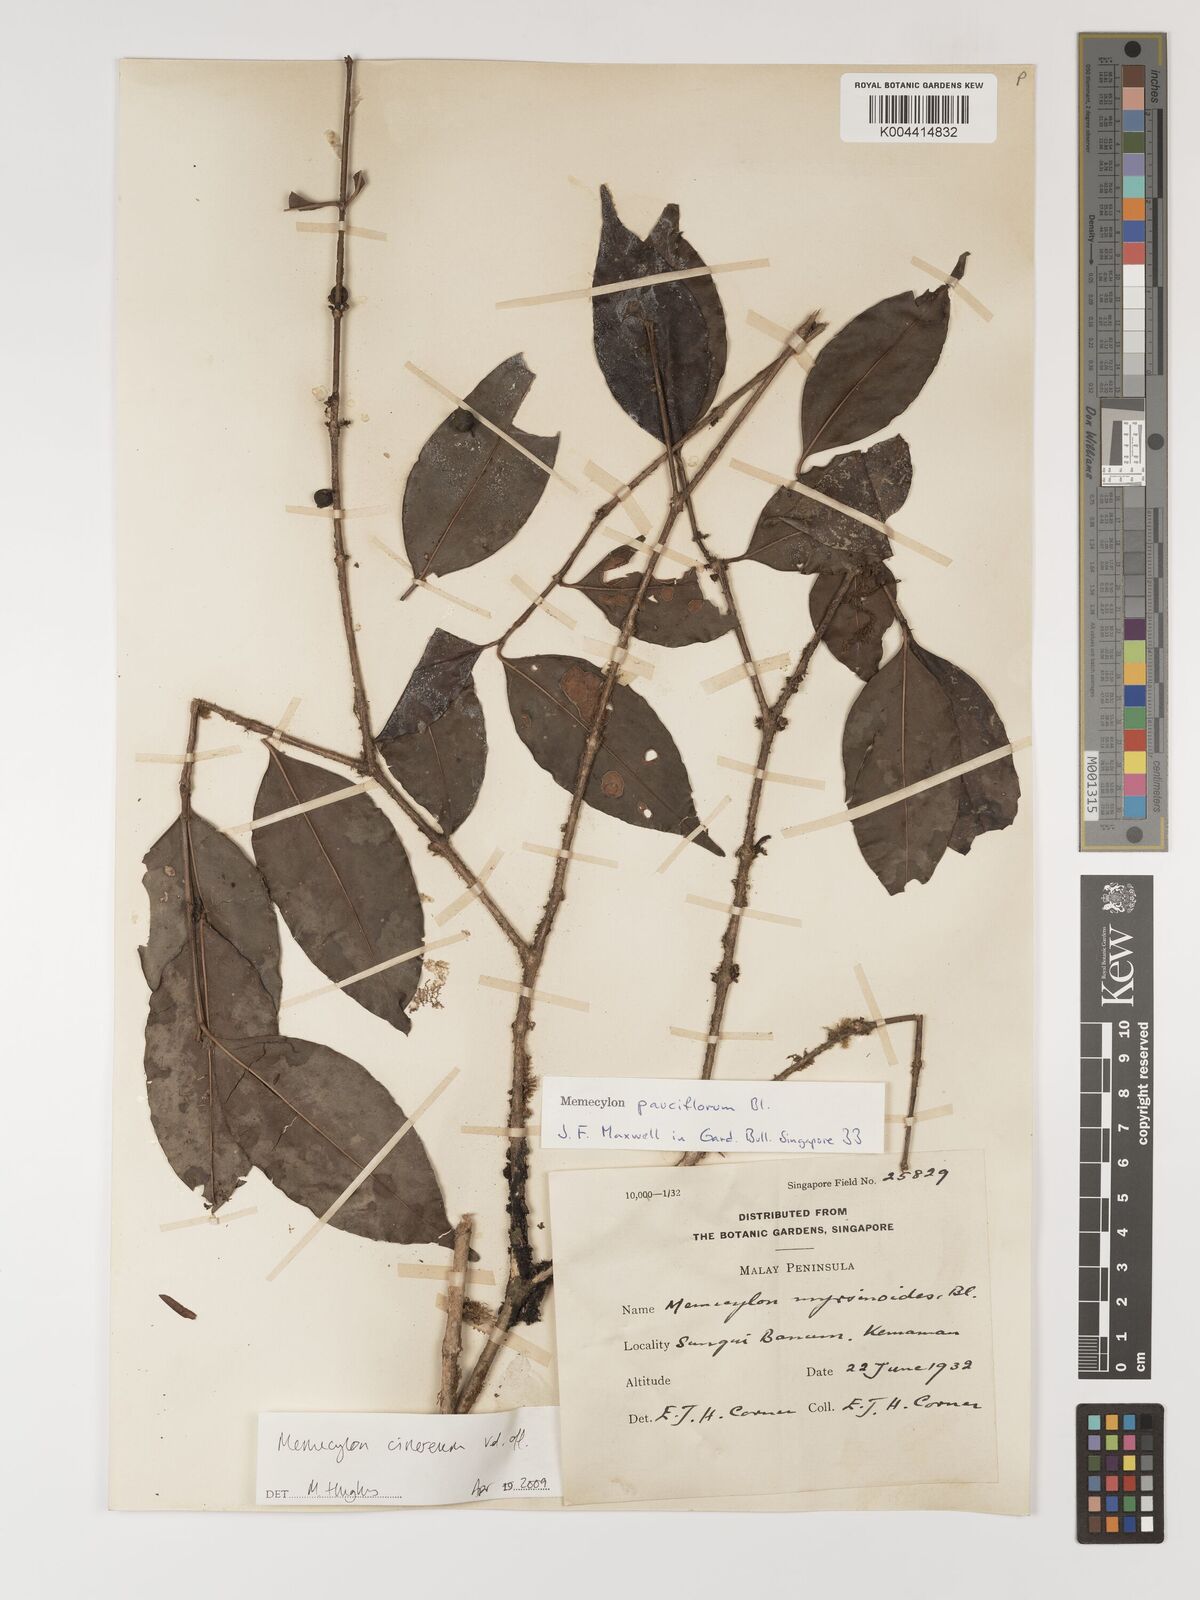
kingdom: Plantae
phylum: Tracheophyta
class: Magnoliopsida
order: Myrtales
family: Melastomataceae
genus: Memecylon
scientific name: Memecylon cinereum
